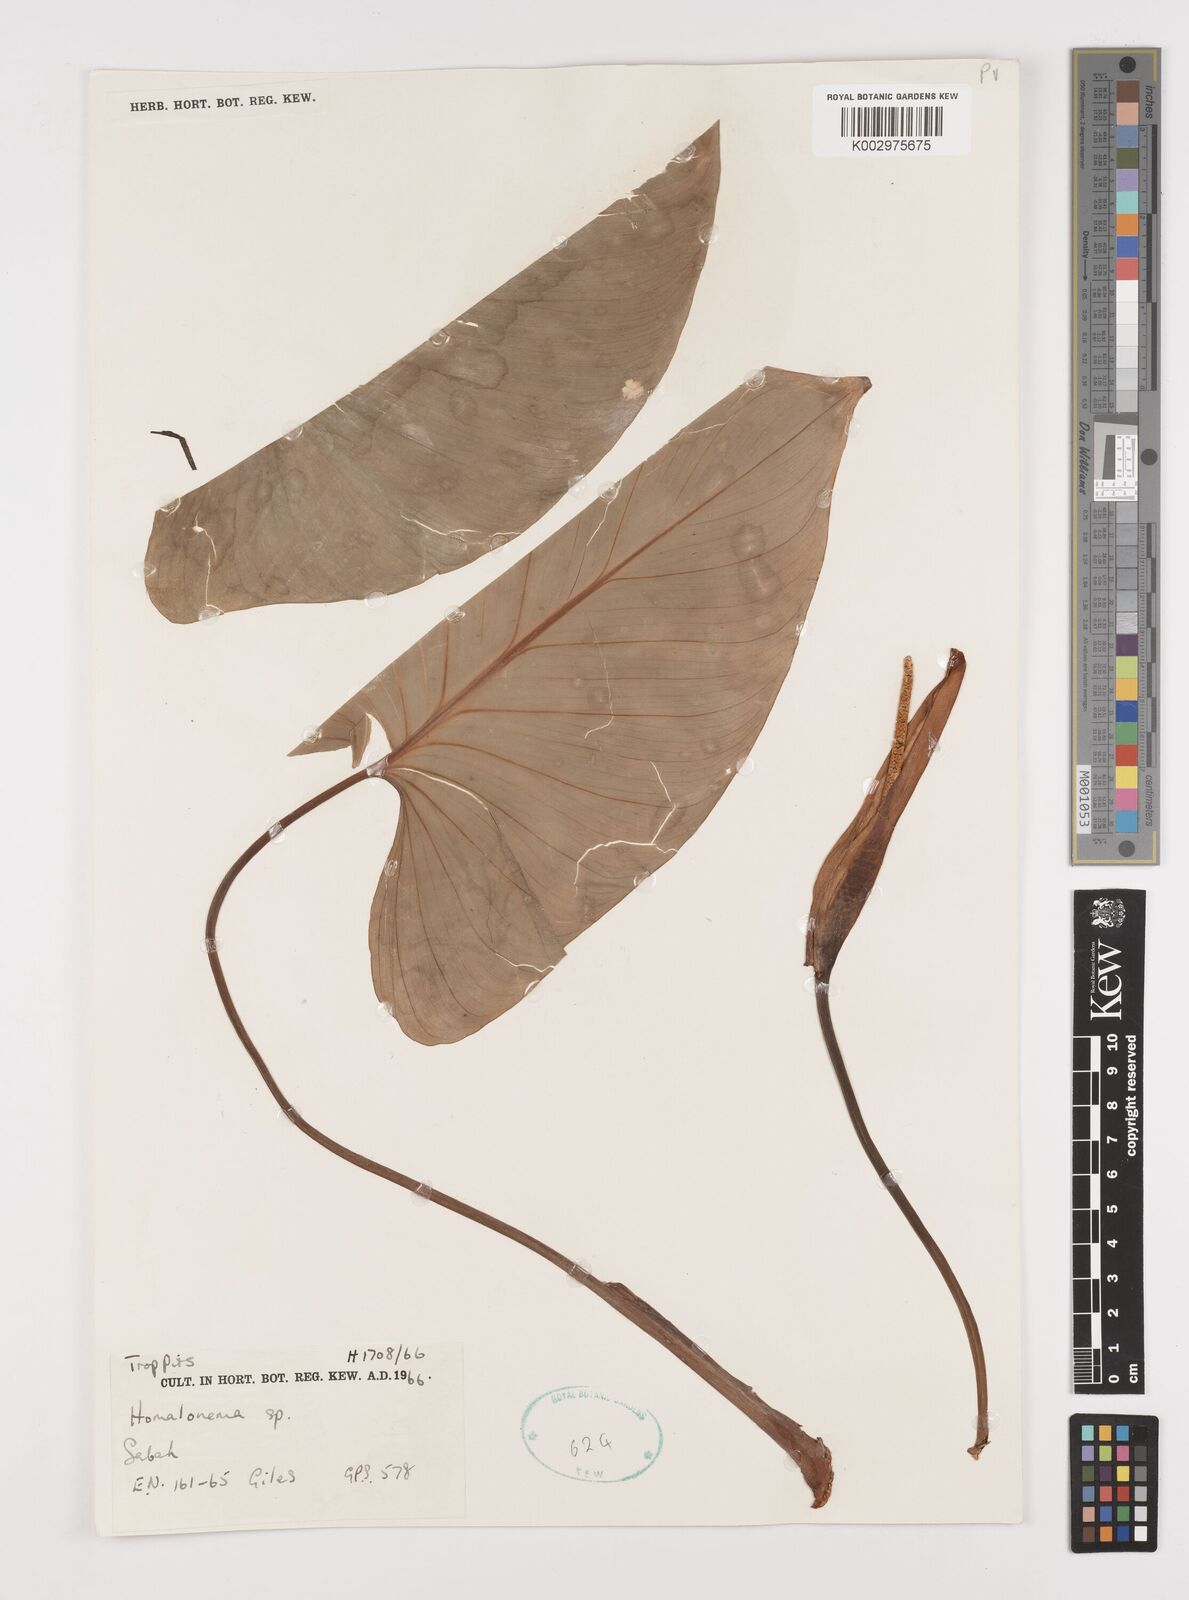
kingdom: Plantae
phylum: Tracheophyta
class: Liliopsida
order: Alismatales
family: Araceae
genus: Homalomena
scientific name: Homalomena
